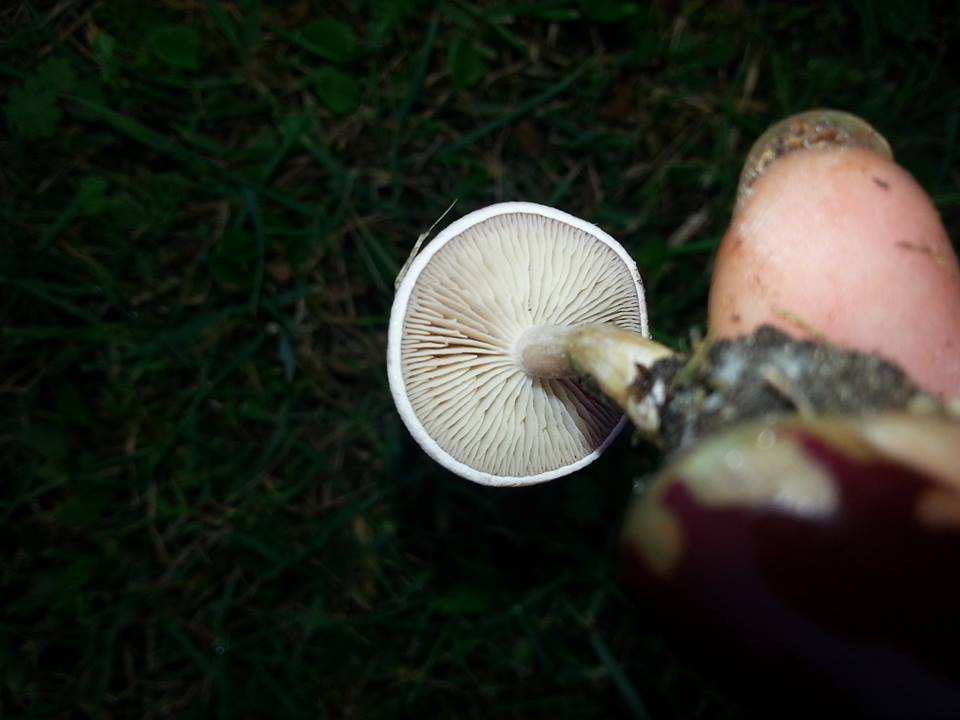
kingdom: Fungi
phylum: Basidiomycota
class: Agaricomycetes
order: Agaricales
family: Tricholomataceae
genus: Clitocybe
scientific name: Clitocybe rivulosa
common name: eng-tragthat
